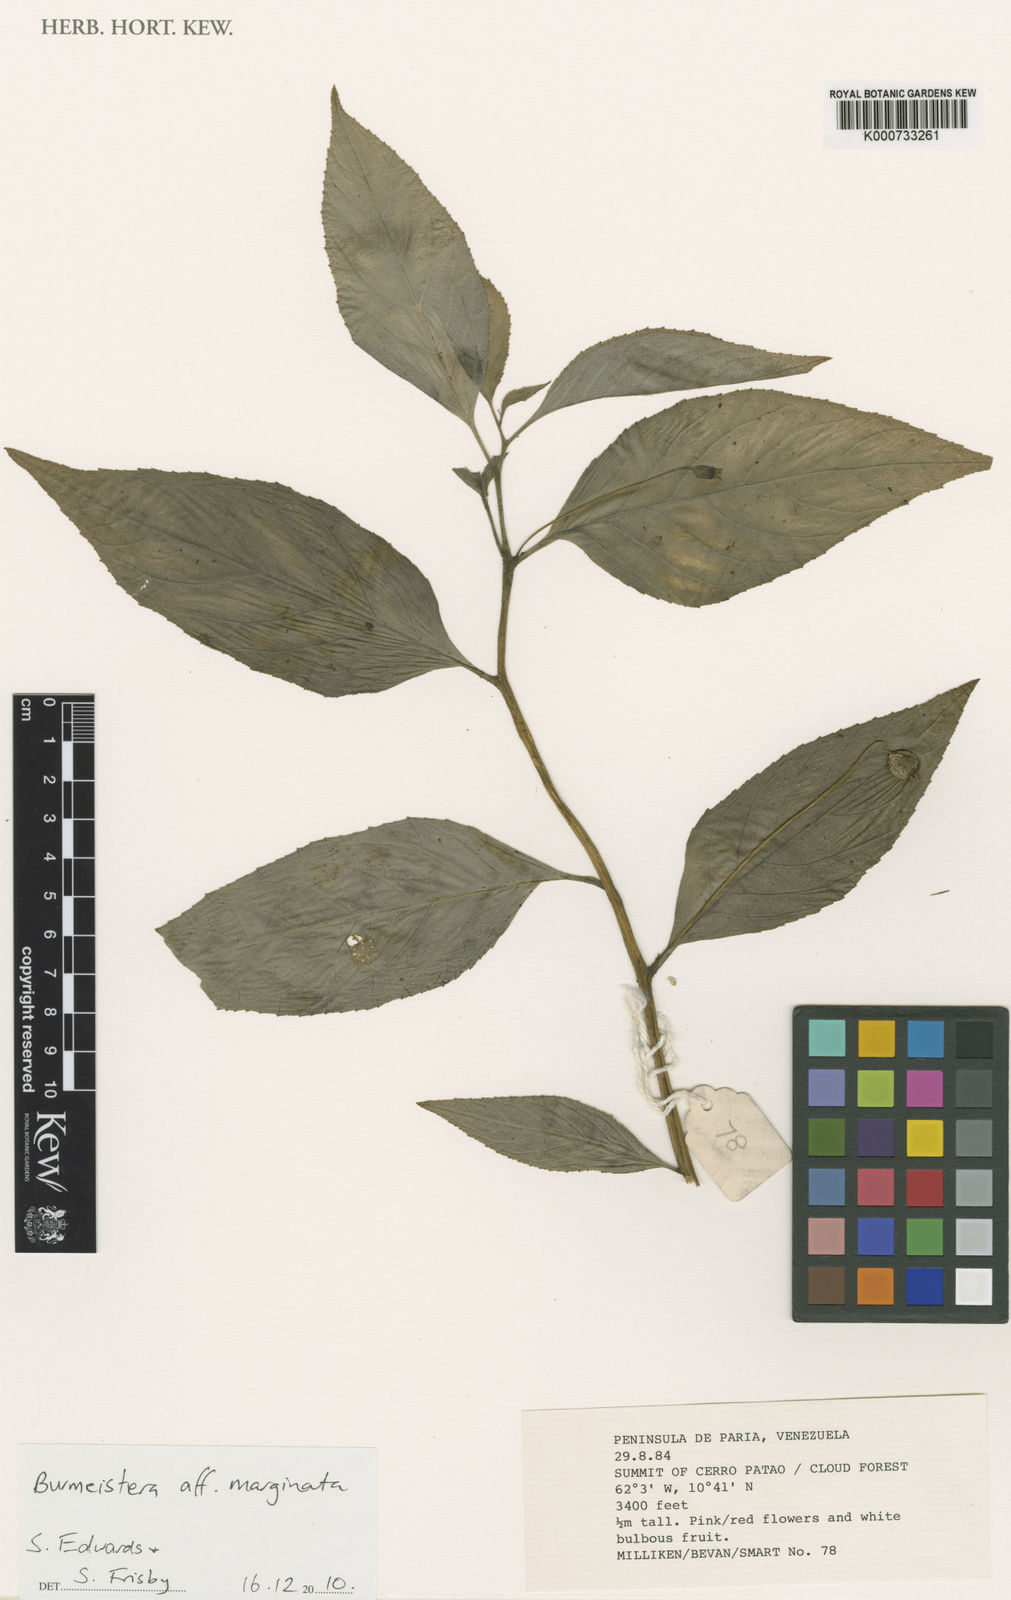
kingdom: Plantae
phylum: Tracheophyta
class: Magnoliopsida
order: Asterales
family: Campanulaceae
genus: Centropogon
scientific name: Centropogon pataensis
